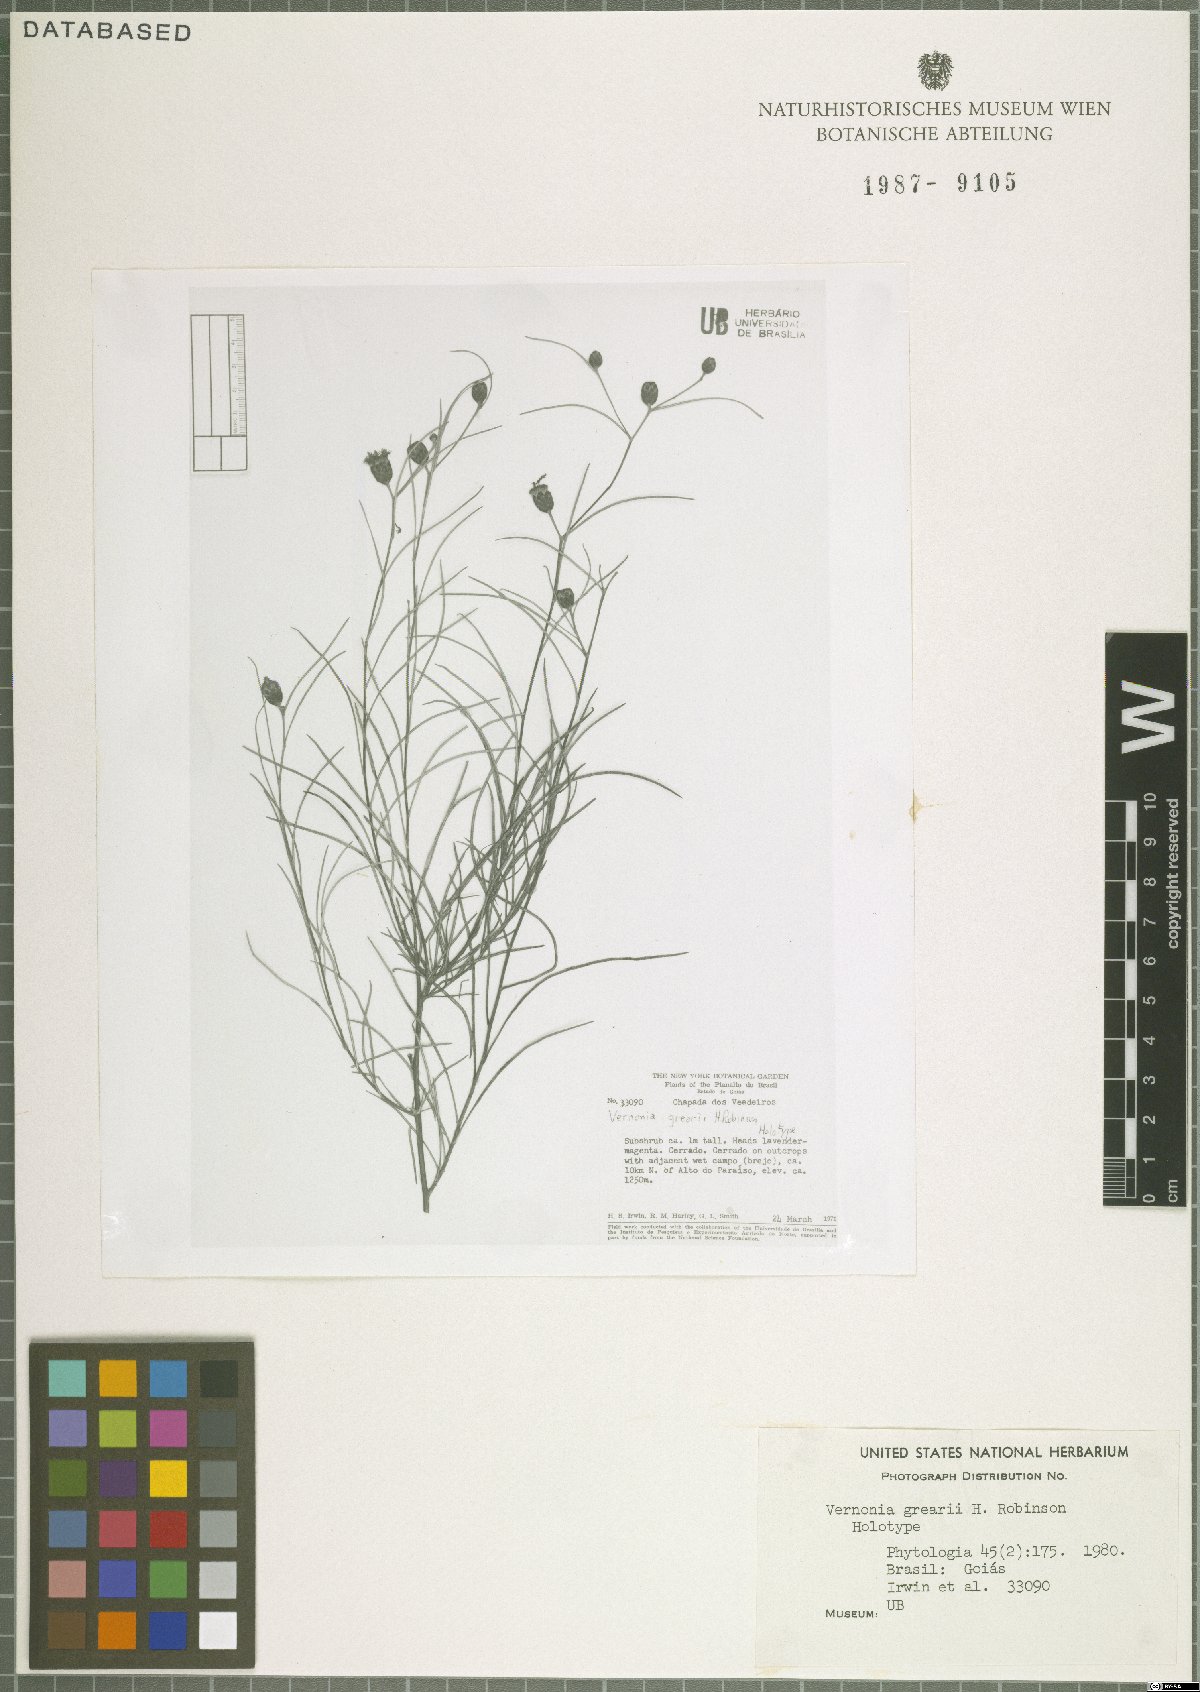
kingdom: Plantae
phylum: Tracheophyta
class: Magnoliopsida
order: Asterales
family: Asteraceae
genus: Lessingianthus
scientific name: Lessingianthus grearii
